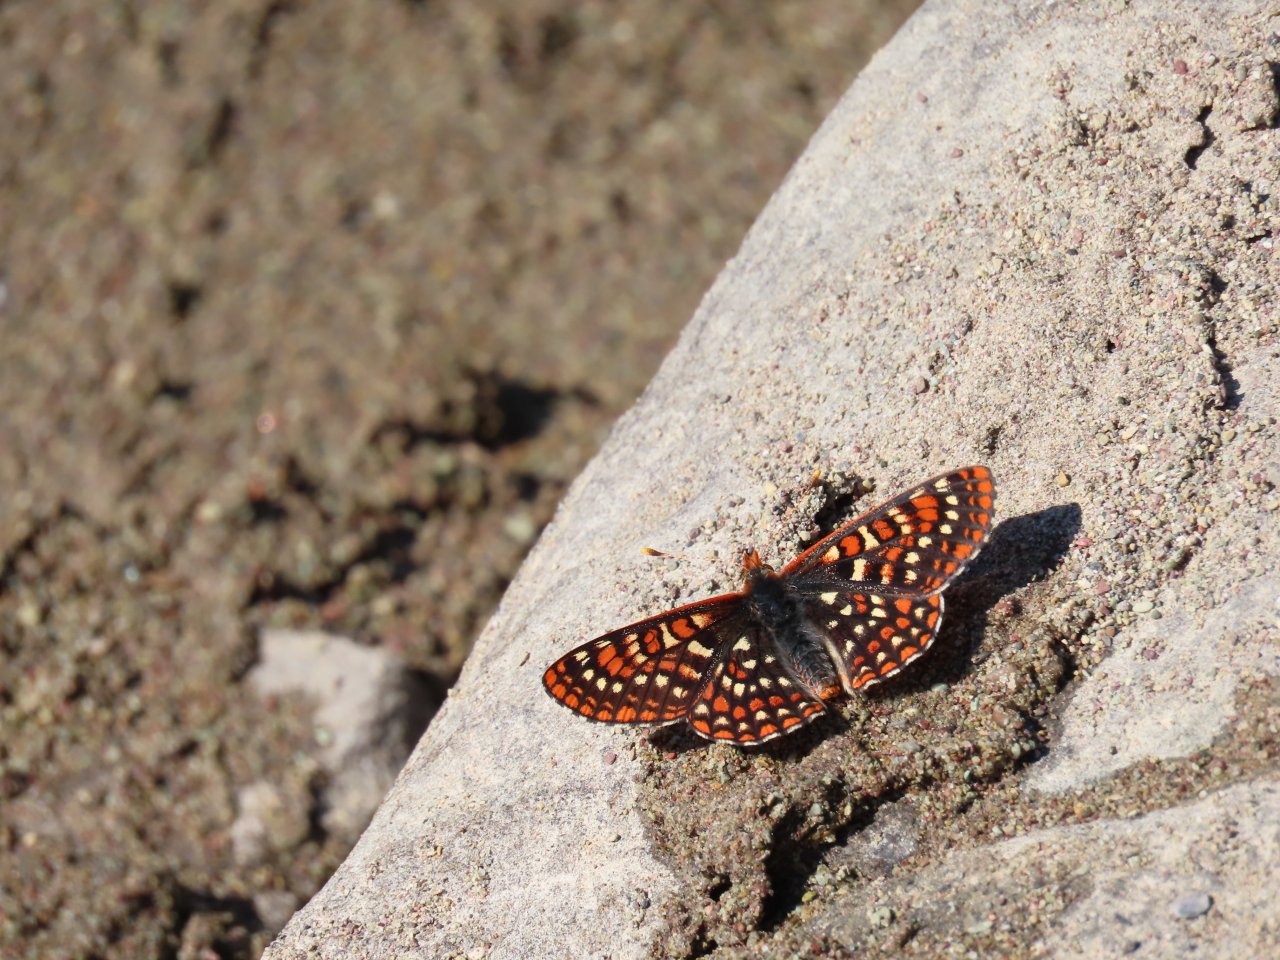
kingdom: Animalia
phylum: Arthropoda
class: Insecta
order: Lepidoptera
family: Nymphalidae
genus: Occidryas
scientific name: Occidryas anicia
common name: Anicia Checkerspot
